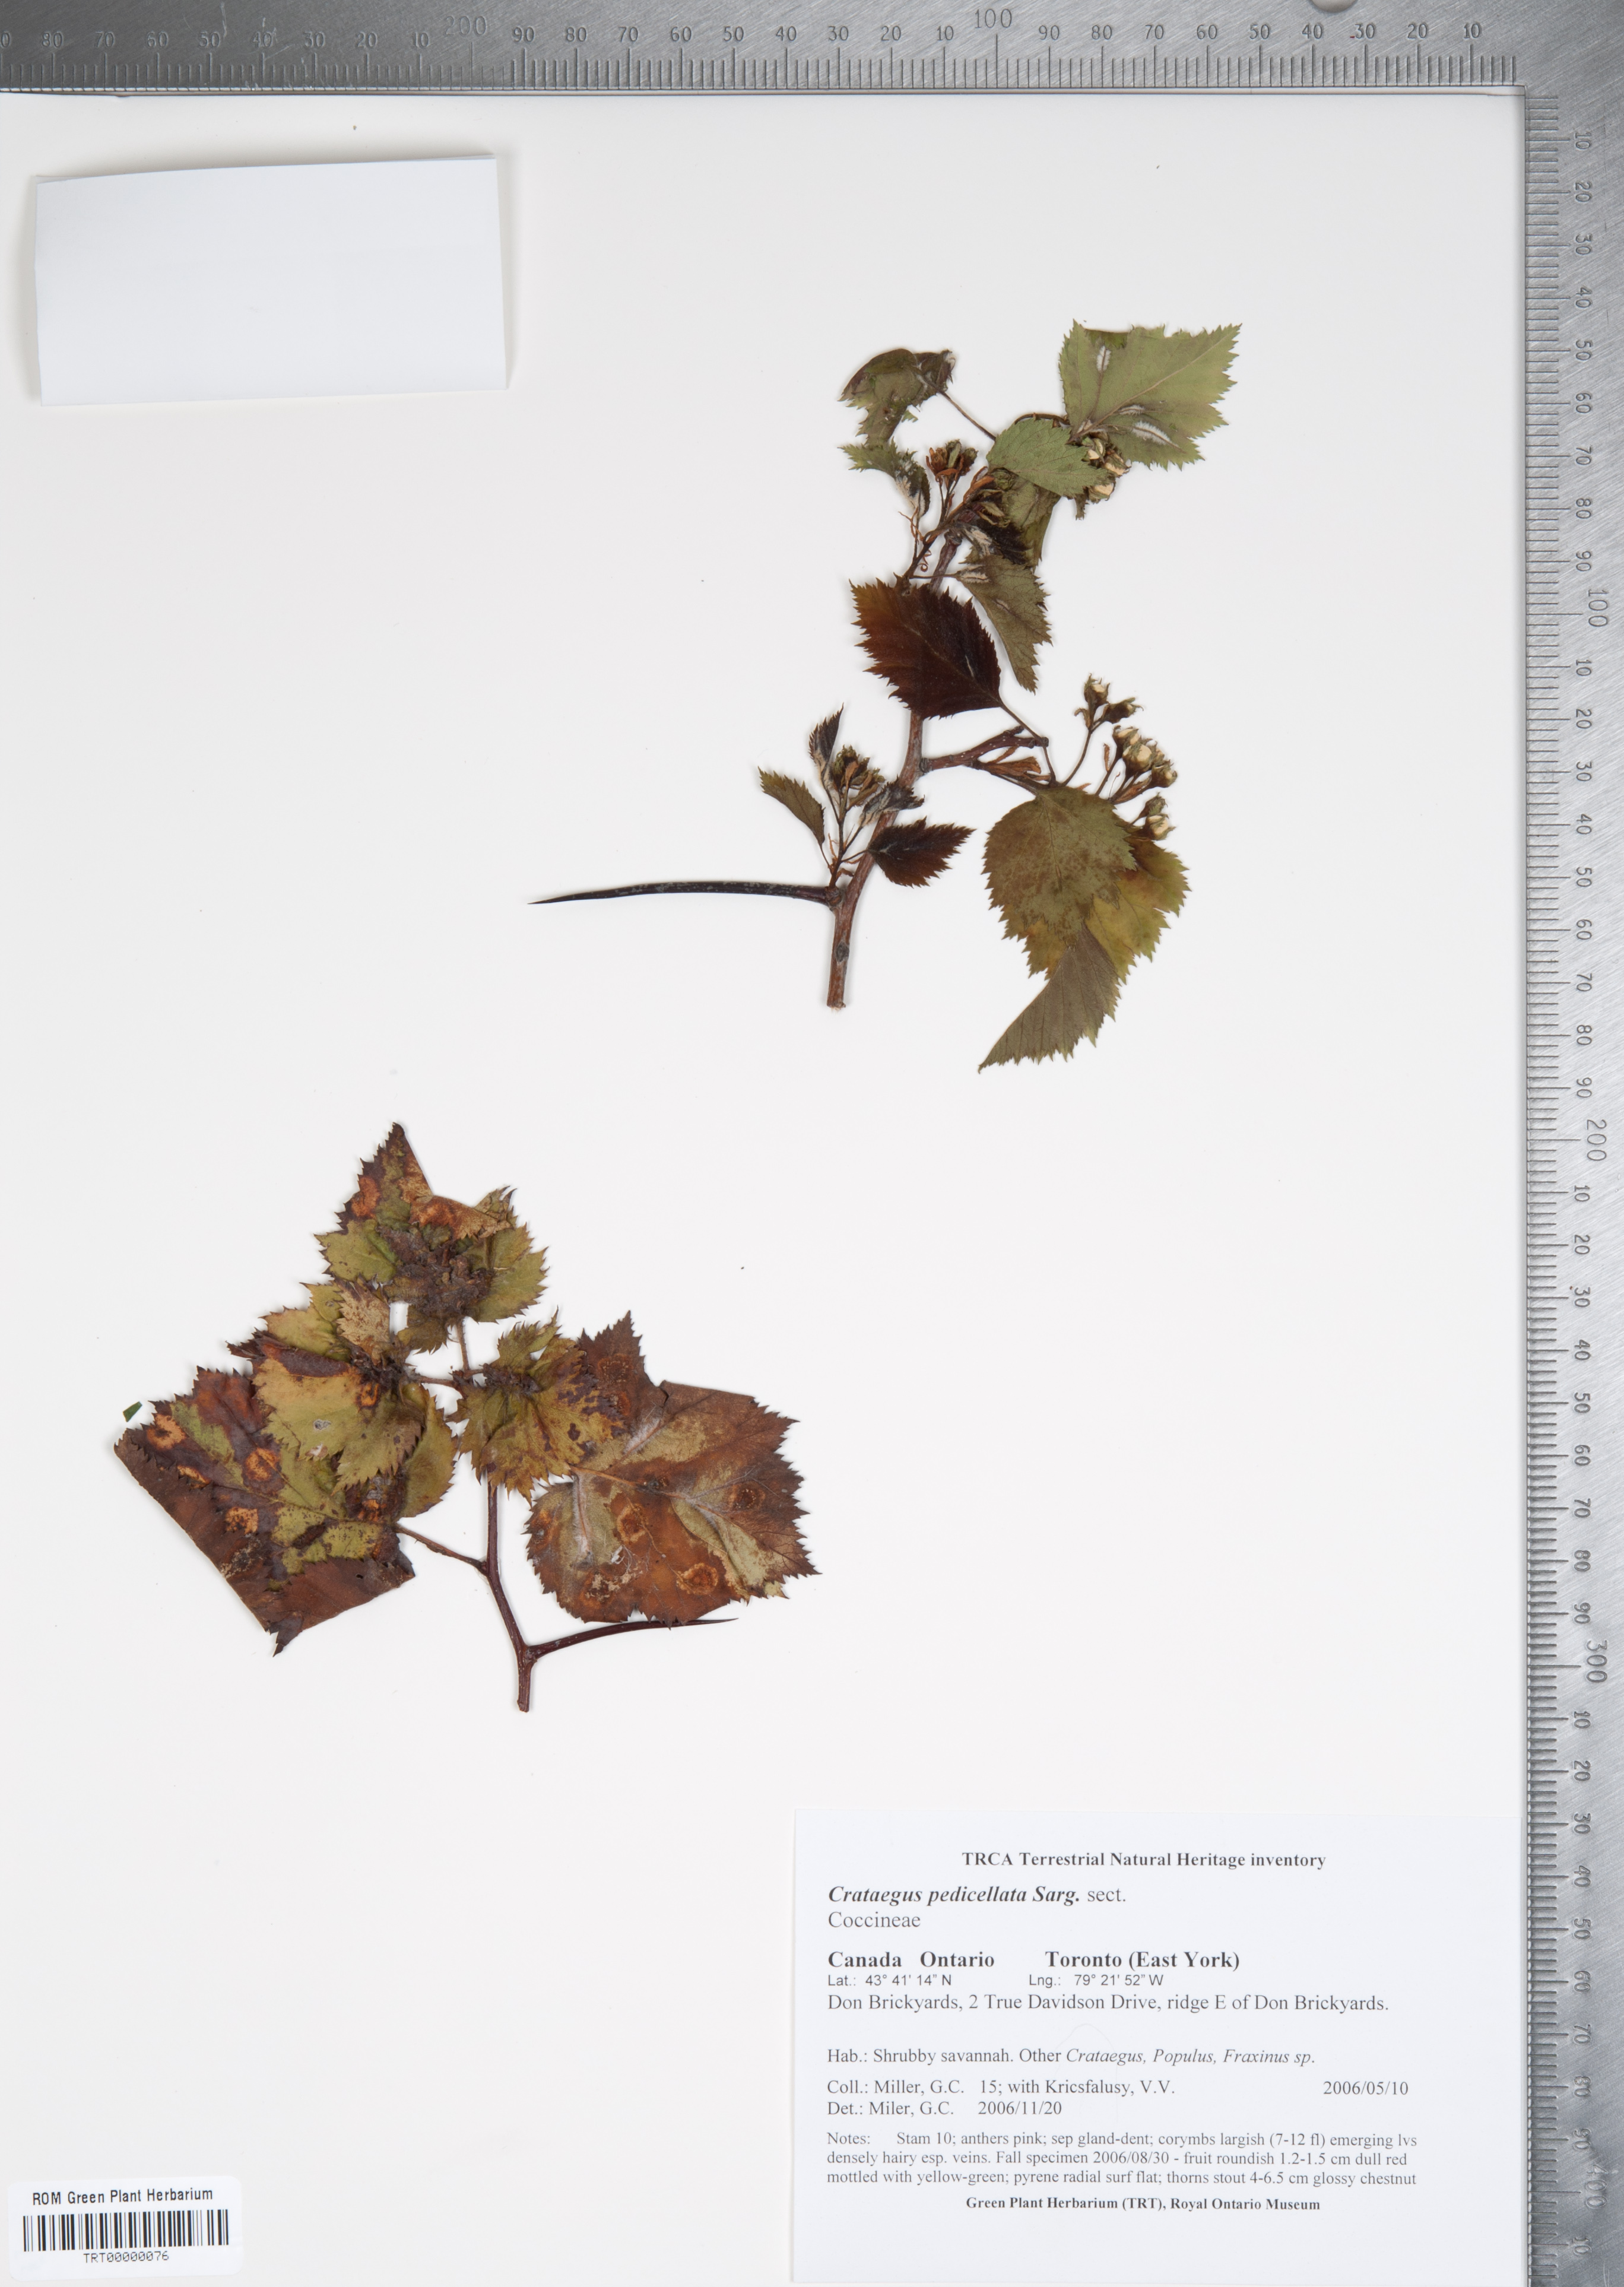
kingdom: Plantae
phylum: Tracheophyta
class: Magnoliopsida
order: Rosales
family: Rosaceae
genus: Crataegus
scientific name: Crataegus coccinea
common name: Scarlet hawthorn
